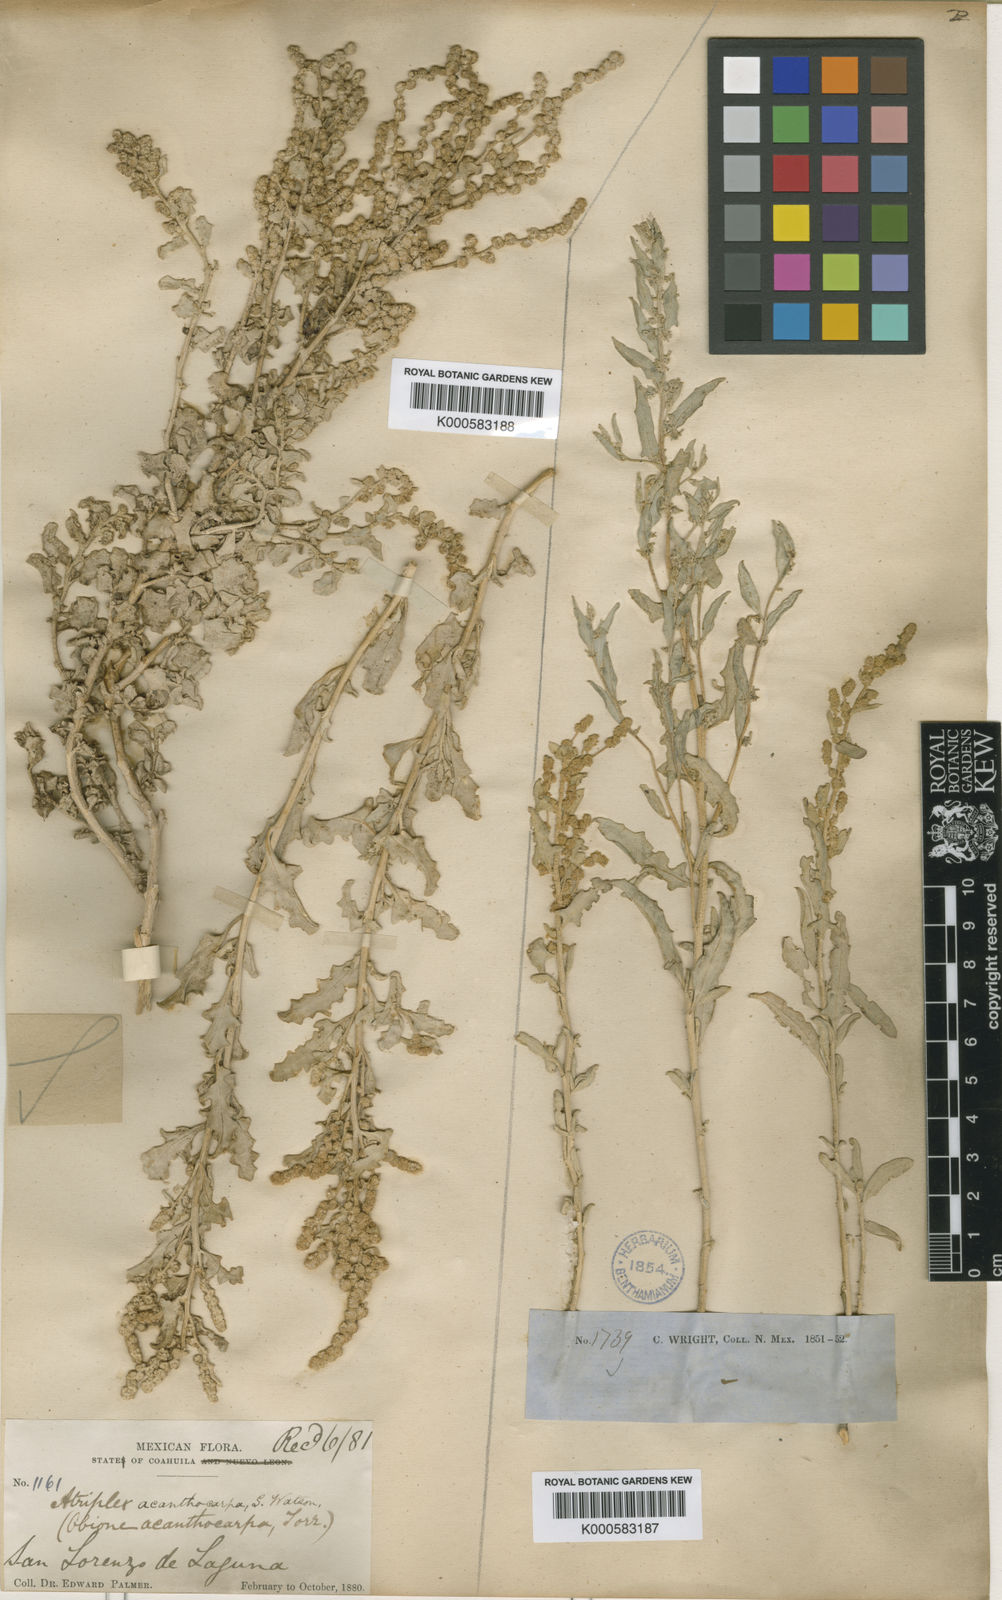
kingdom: Plantae
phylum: Tracheophyta
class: Magnoliopsida
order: Caryophyllales
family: Amaranthaceae
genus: Atriplex
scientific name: Atriplex acanthocarpa
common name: Burscale
